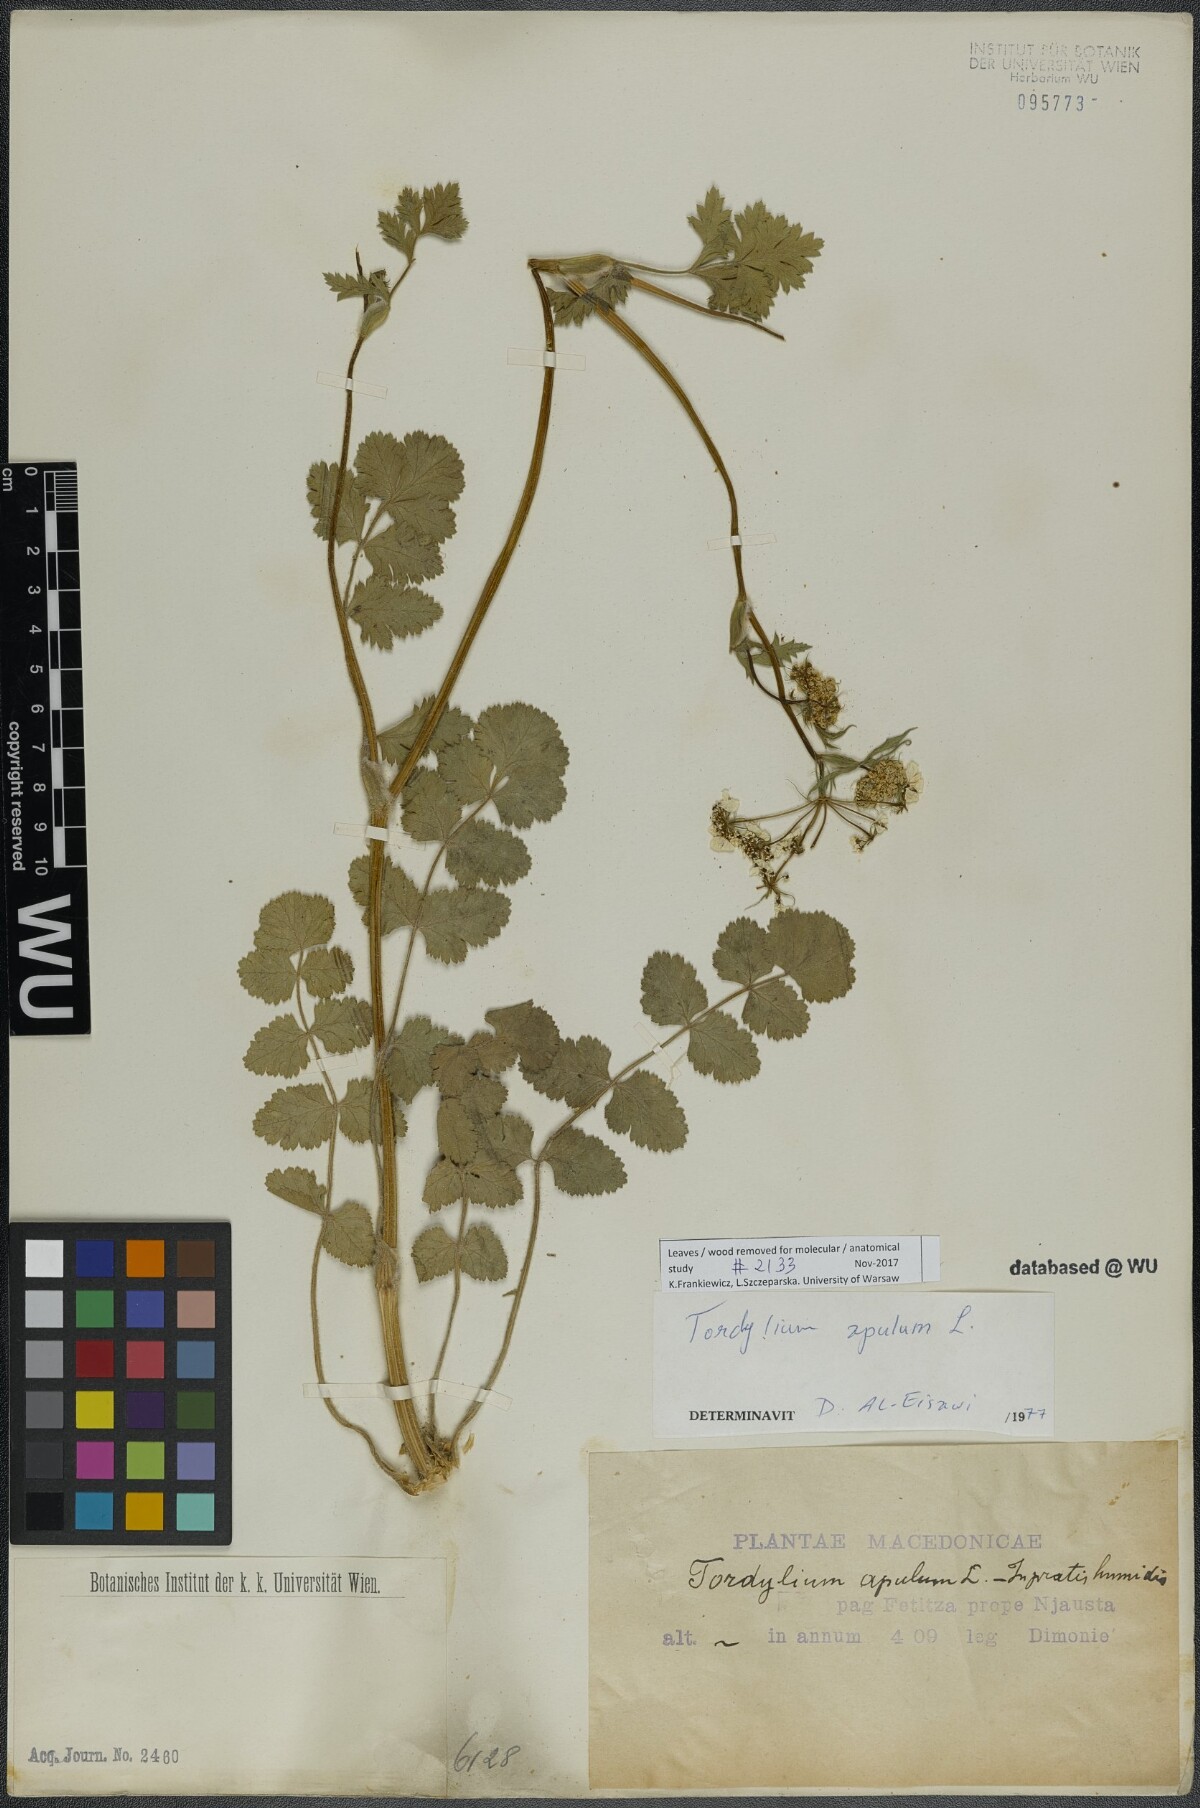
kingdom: Plantae
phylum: Tracheophyta
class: Magnoliopsida
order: Apiales
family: Apiaceae
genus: Tordylium
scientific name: Tordylium apulum
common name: Mediterranean hartwort
